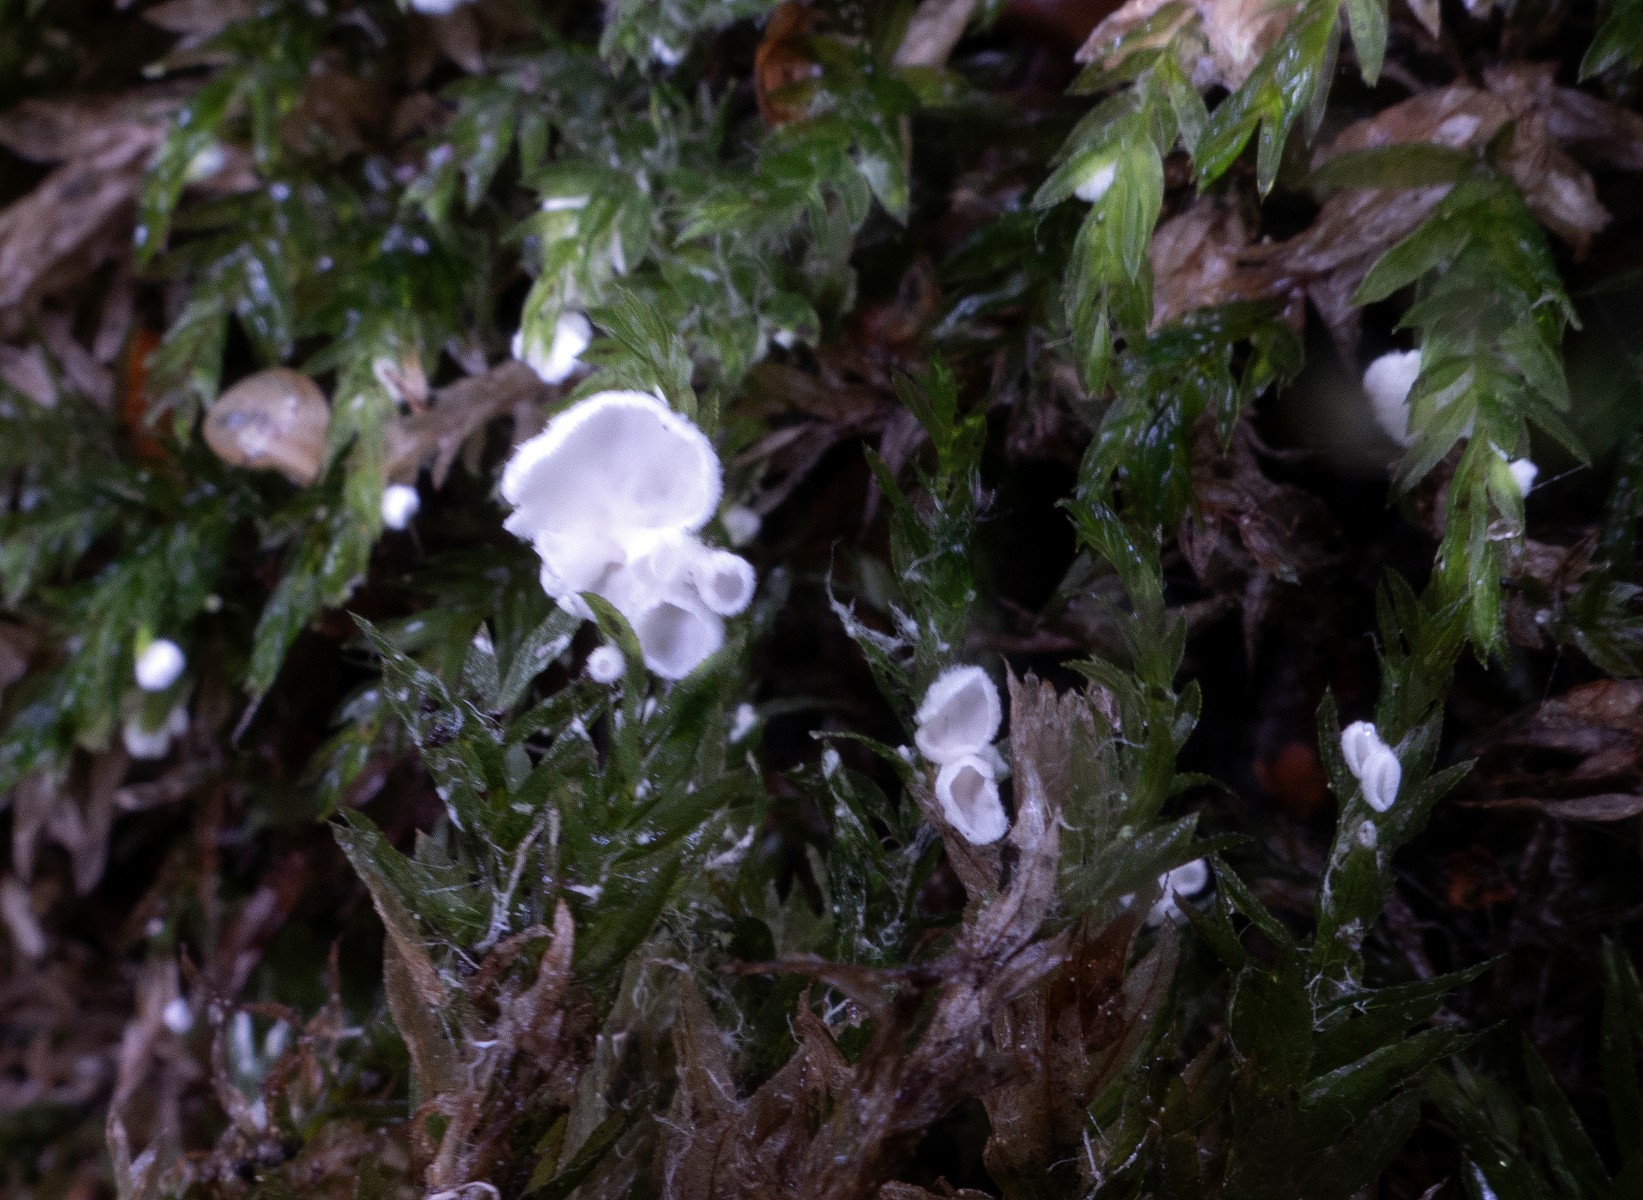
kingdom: Fungi
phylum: Basidiomycota
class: Agaricomycetes
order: Agaricales
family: Tricholomataceae
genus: Rimbachia
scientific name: Rimbachia arachnoidea
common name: Almindelig mosskål
